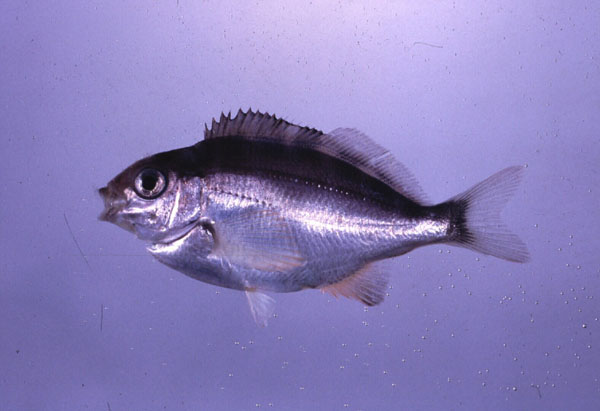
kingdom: Animalia
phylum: Chordata
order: Perciformes
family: Cheilodactylidae
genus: Chirodactylus
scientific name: Chirodactylus brachydactylus
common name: Butterfish
